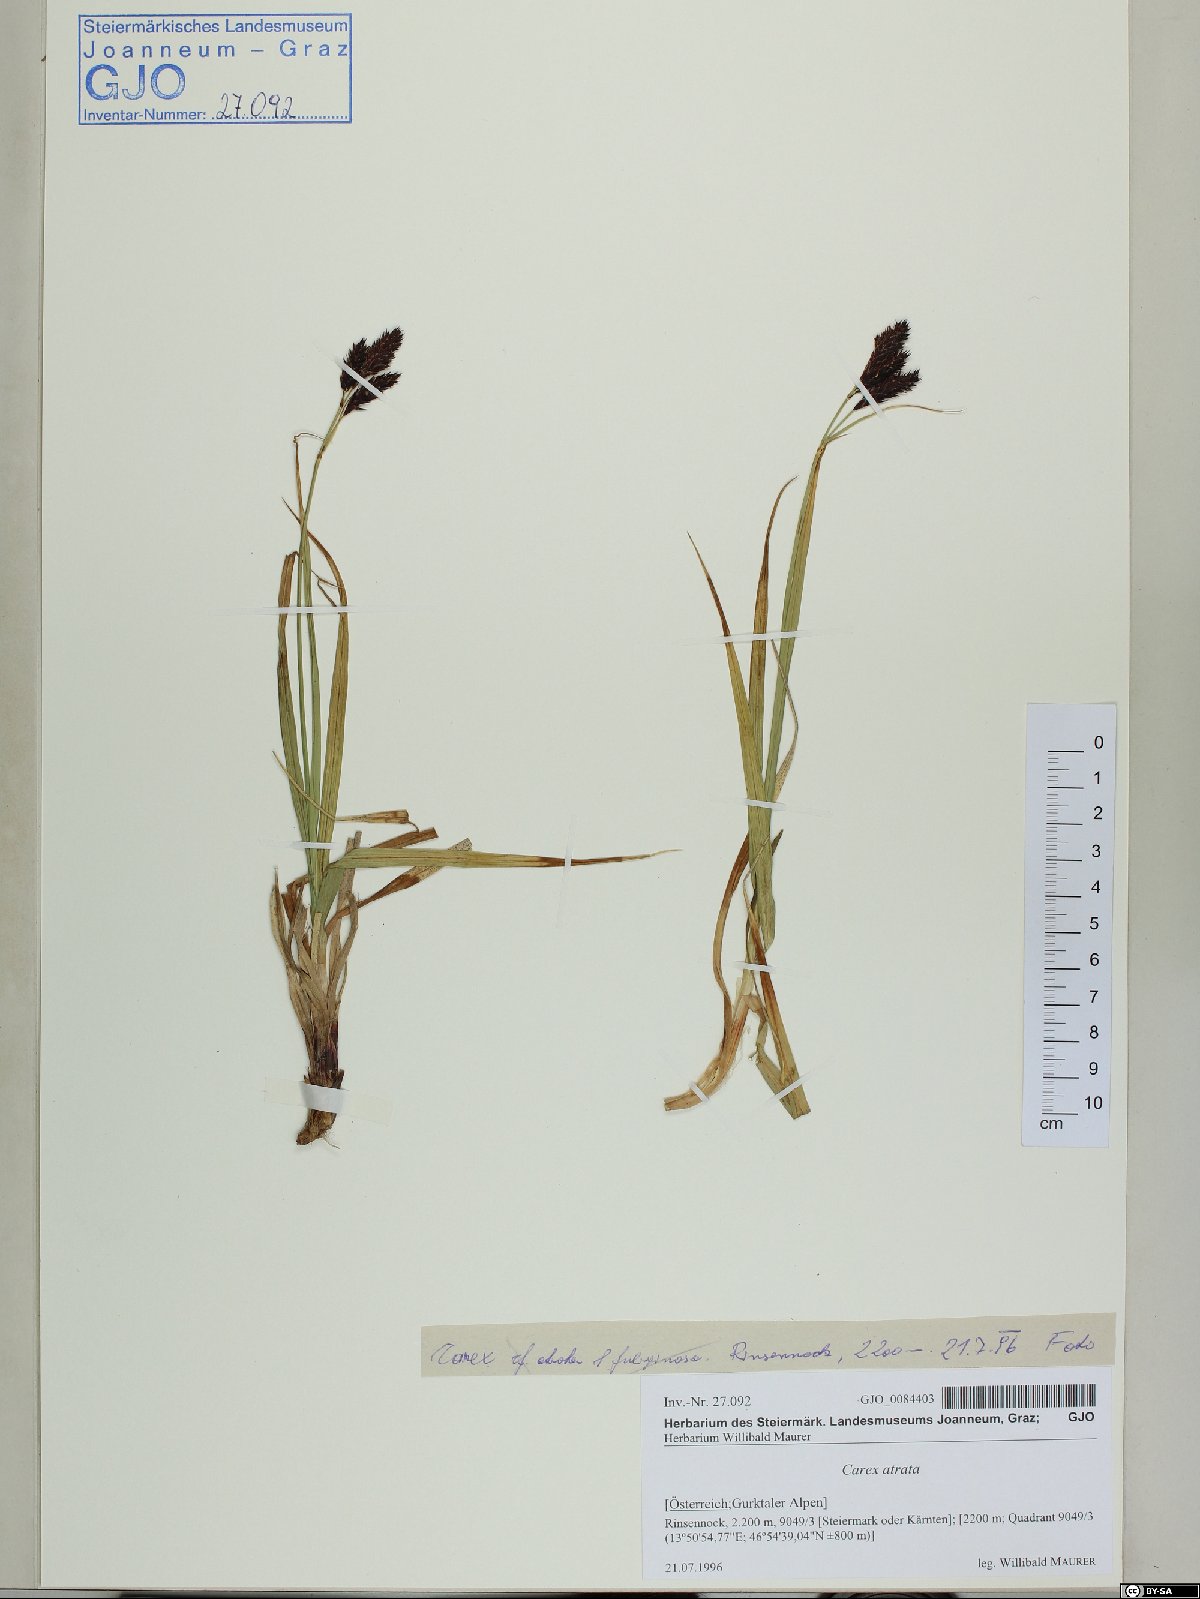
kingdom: Plantae
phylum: Tracheophyta
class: Liliopsida
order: Poales
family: Cyperaceae
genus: Carex
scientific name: Carex atrata
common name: Black alpine sedge
